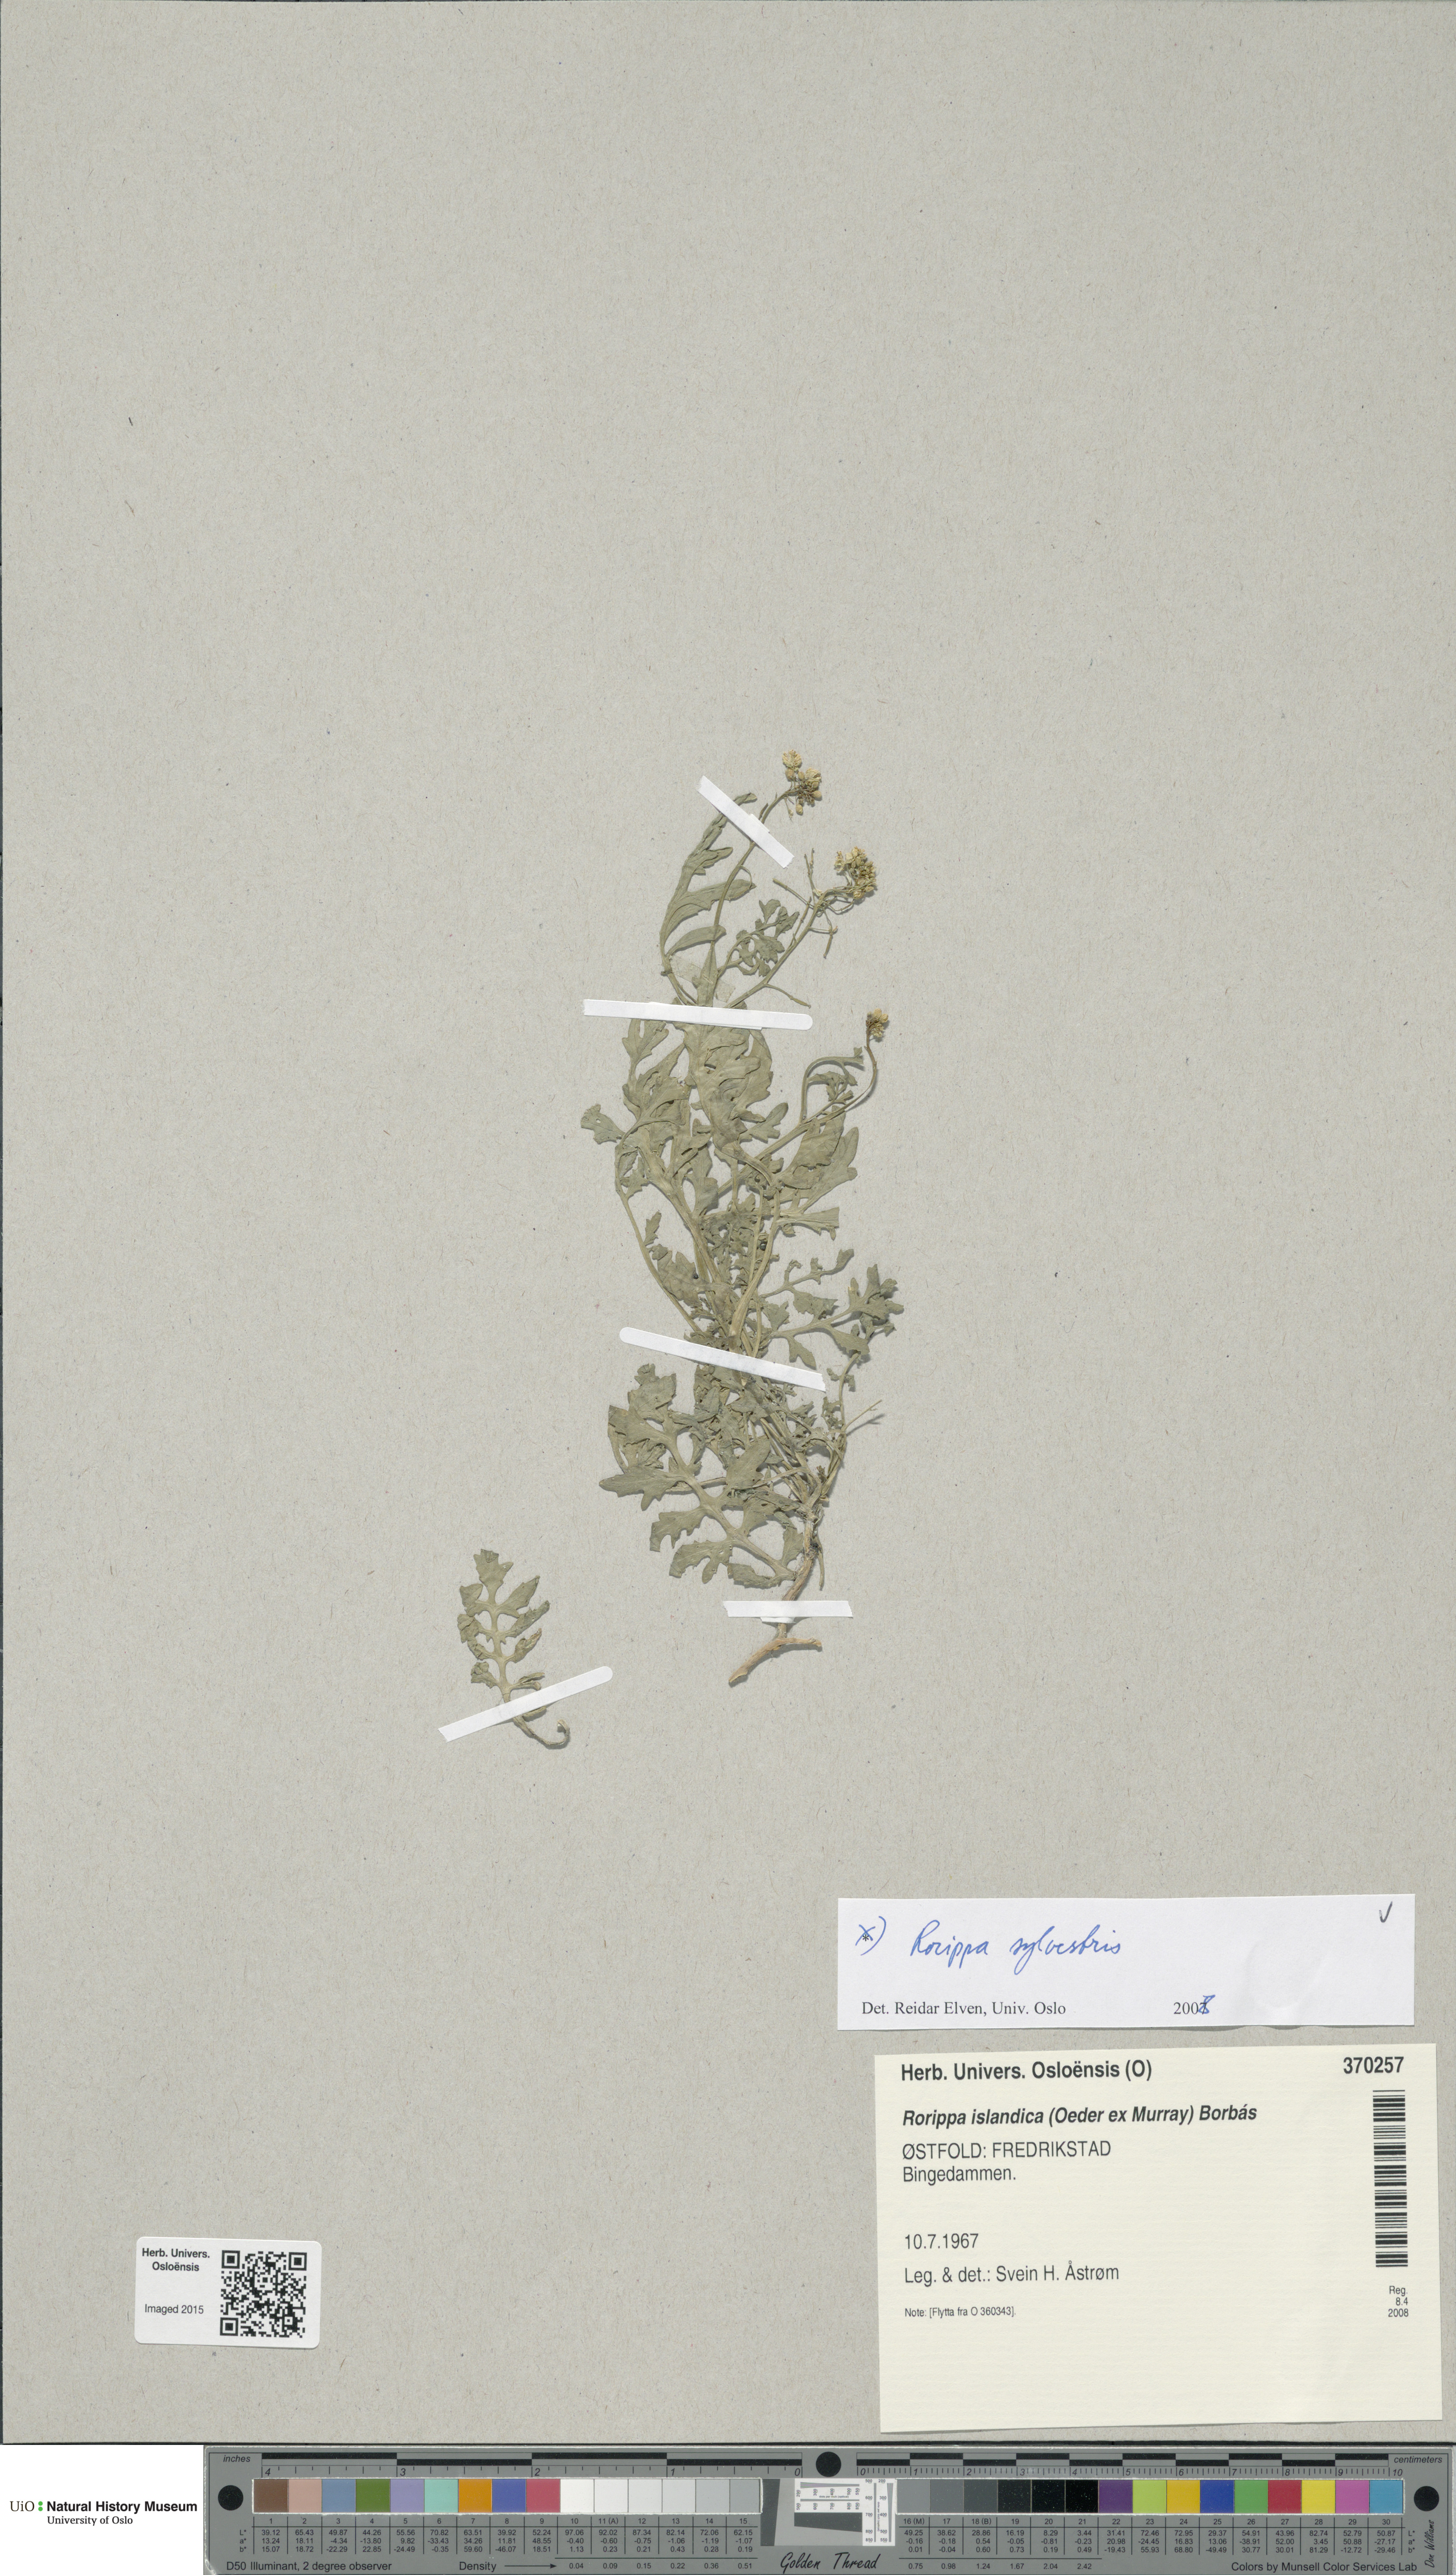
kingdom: Plantae
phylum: Tracheophyta
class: Magnoliopsida
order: Brassicales
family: Brassicaceae
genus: Rorippa
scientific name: Rorippa sylvestris
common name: Creeping yellowcress
